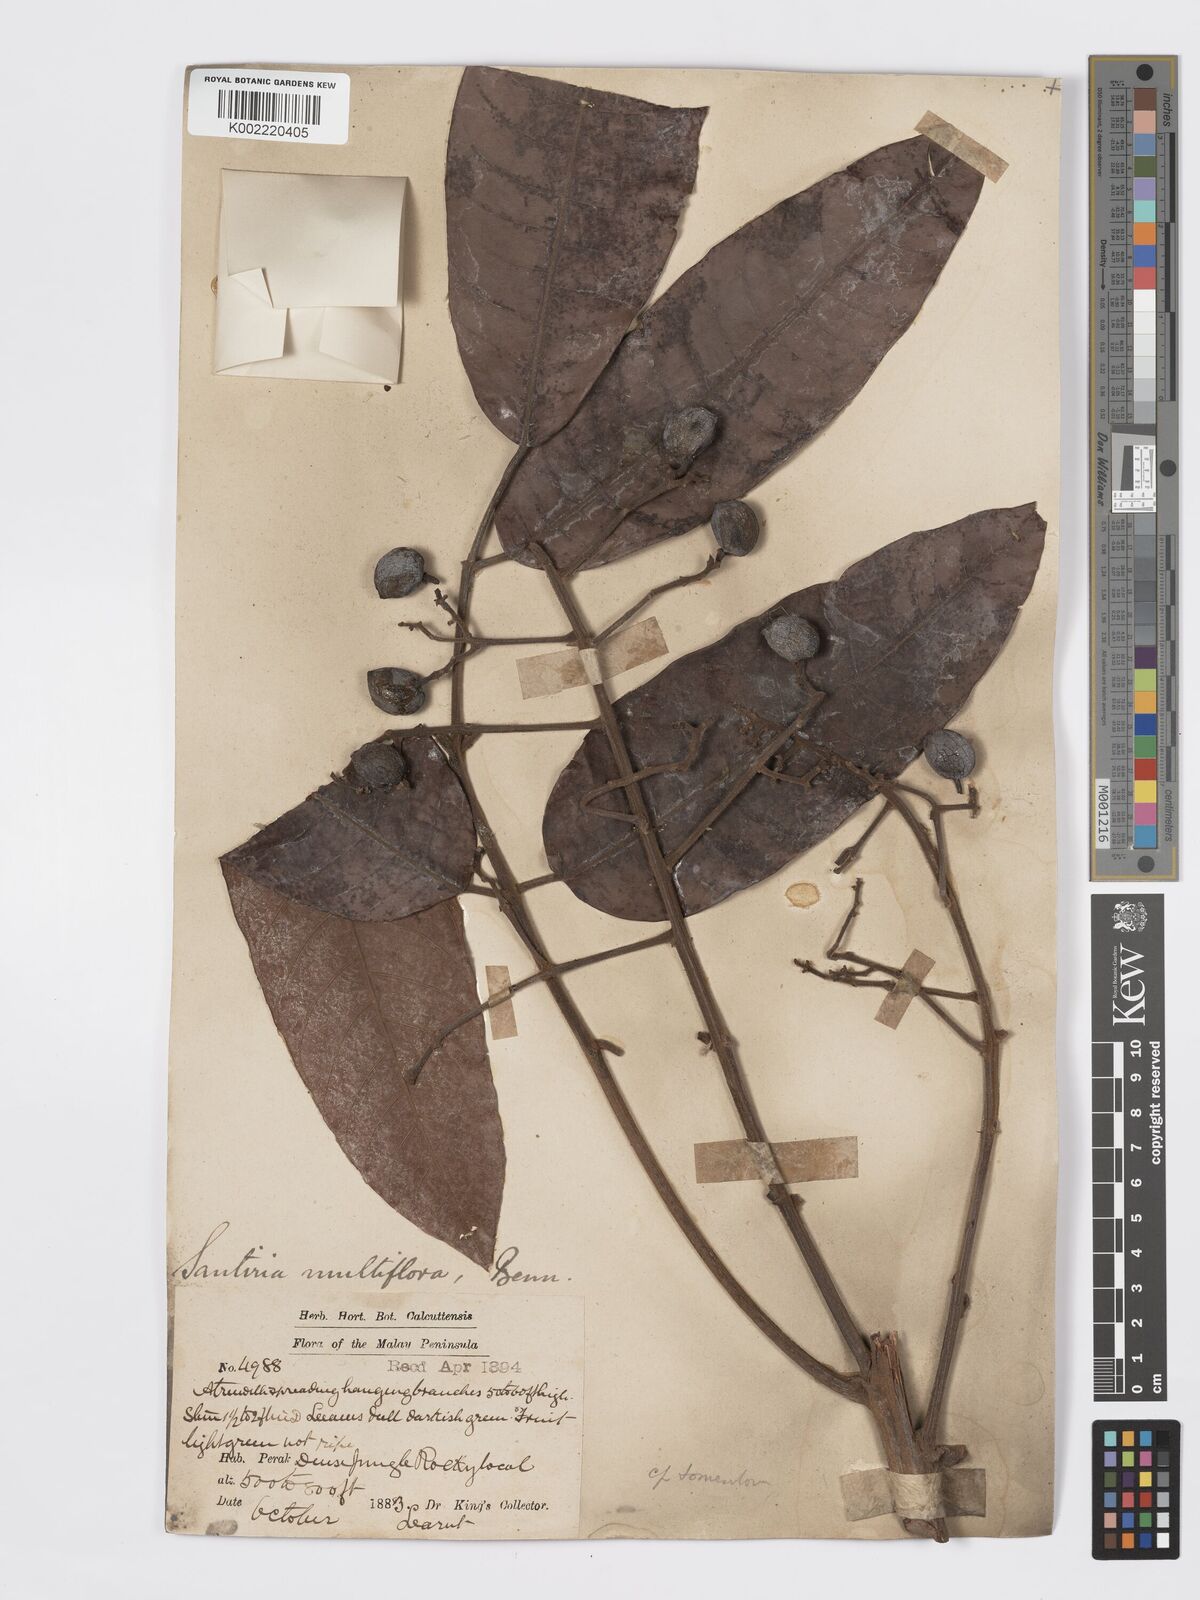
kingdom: Plantae
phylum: Tracheophyta
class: Magnoliopsida
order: Sapindales
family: Burseraceae
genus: Santiria
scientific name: Santiria tomentosa
